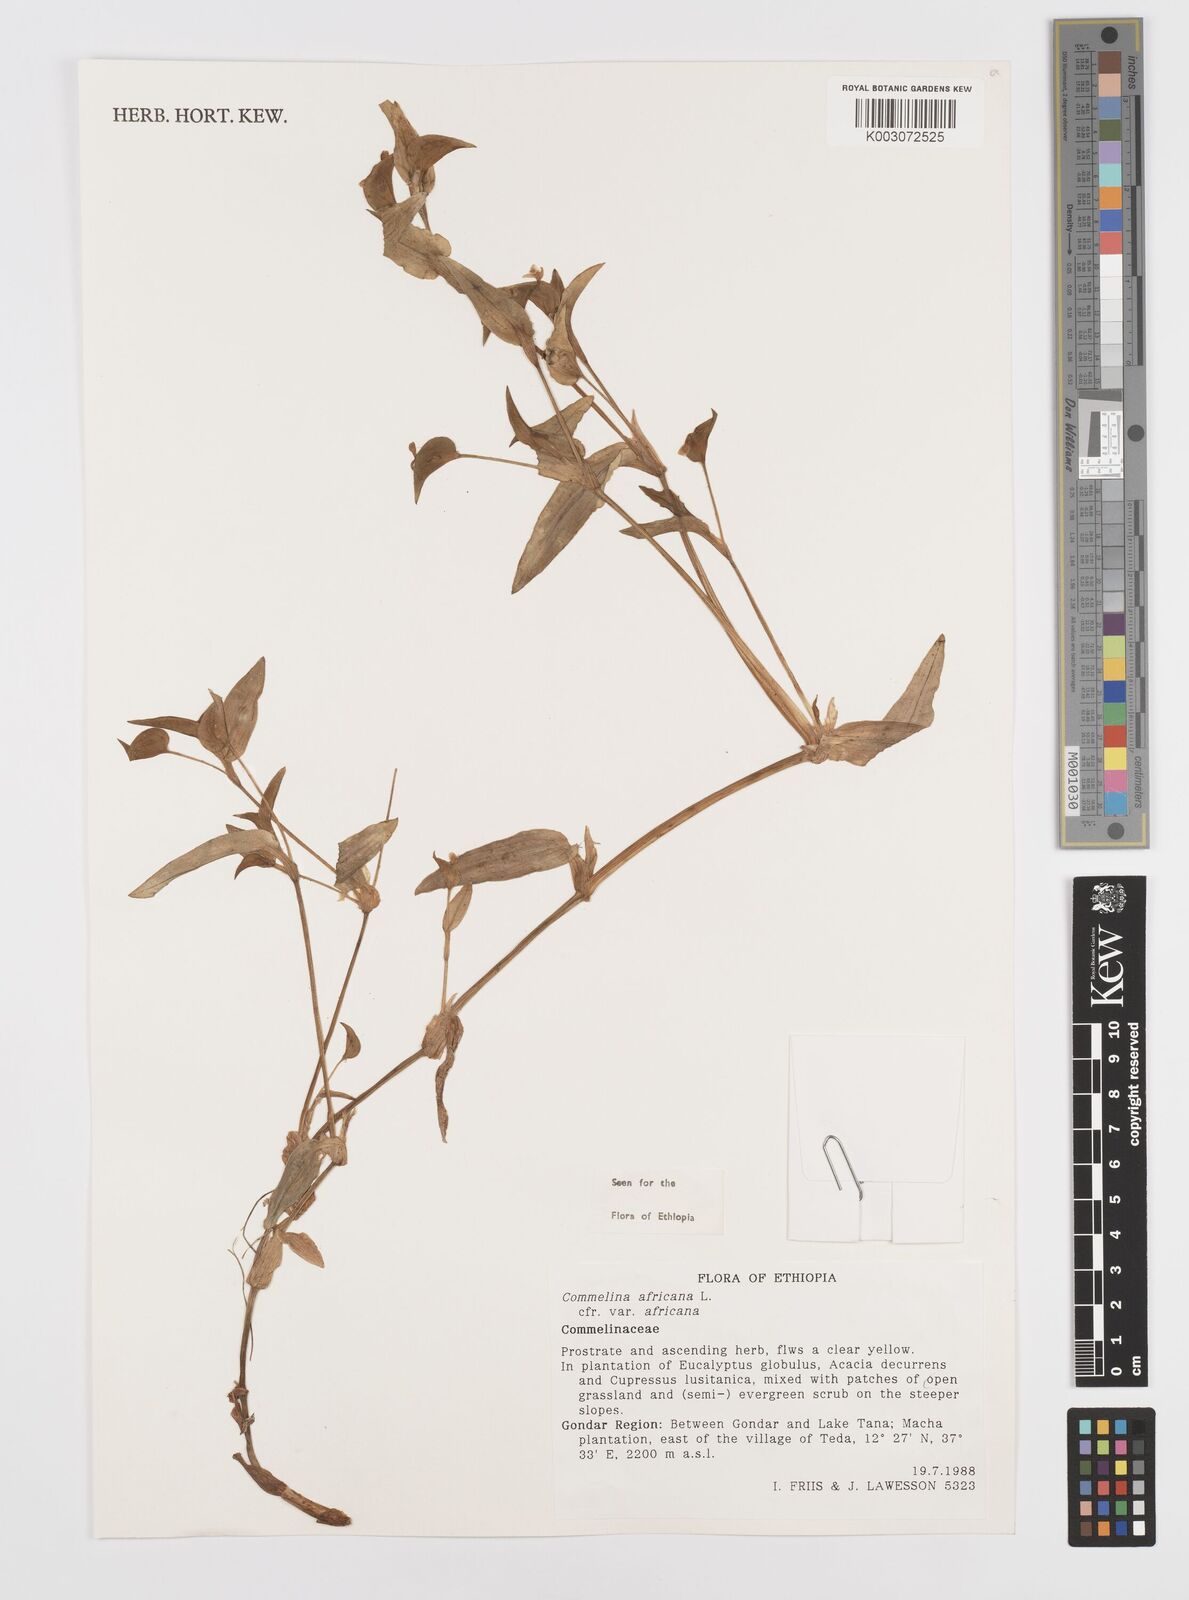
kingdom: Plantae
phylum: Tracheophyta
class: Liliopsida
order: Commelinales
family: Commelinaceae
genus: Commelina
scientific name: Commelina africana
